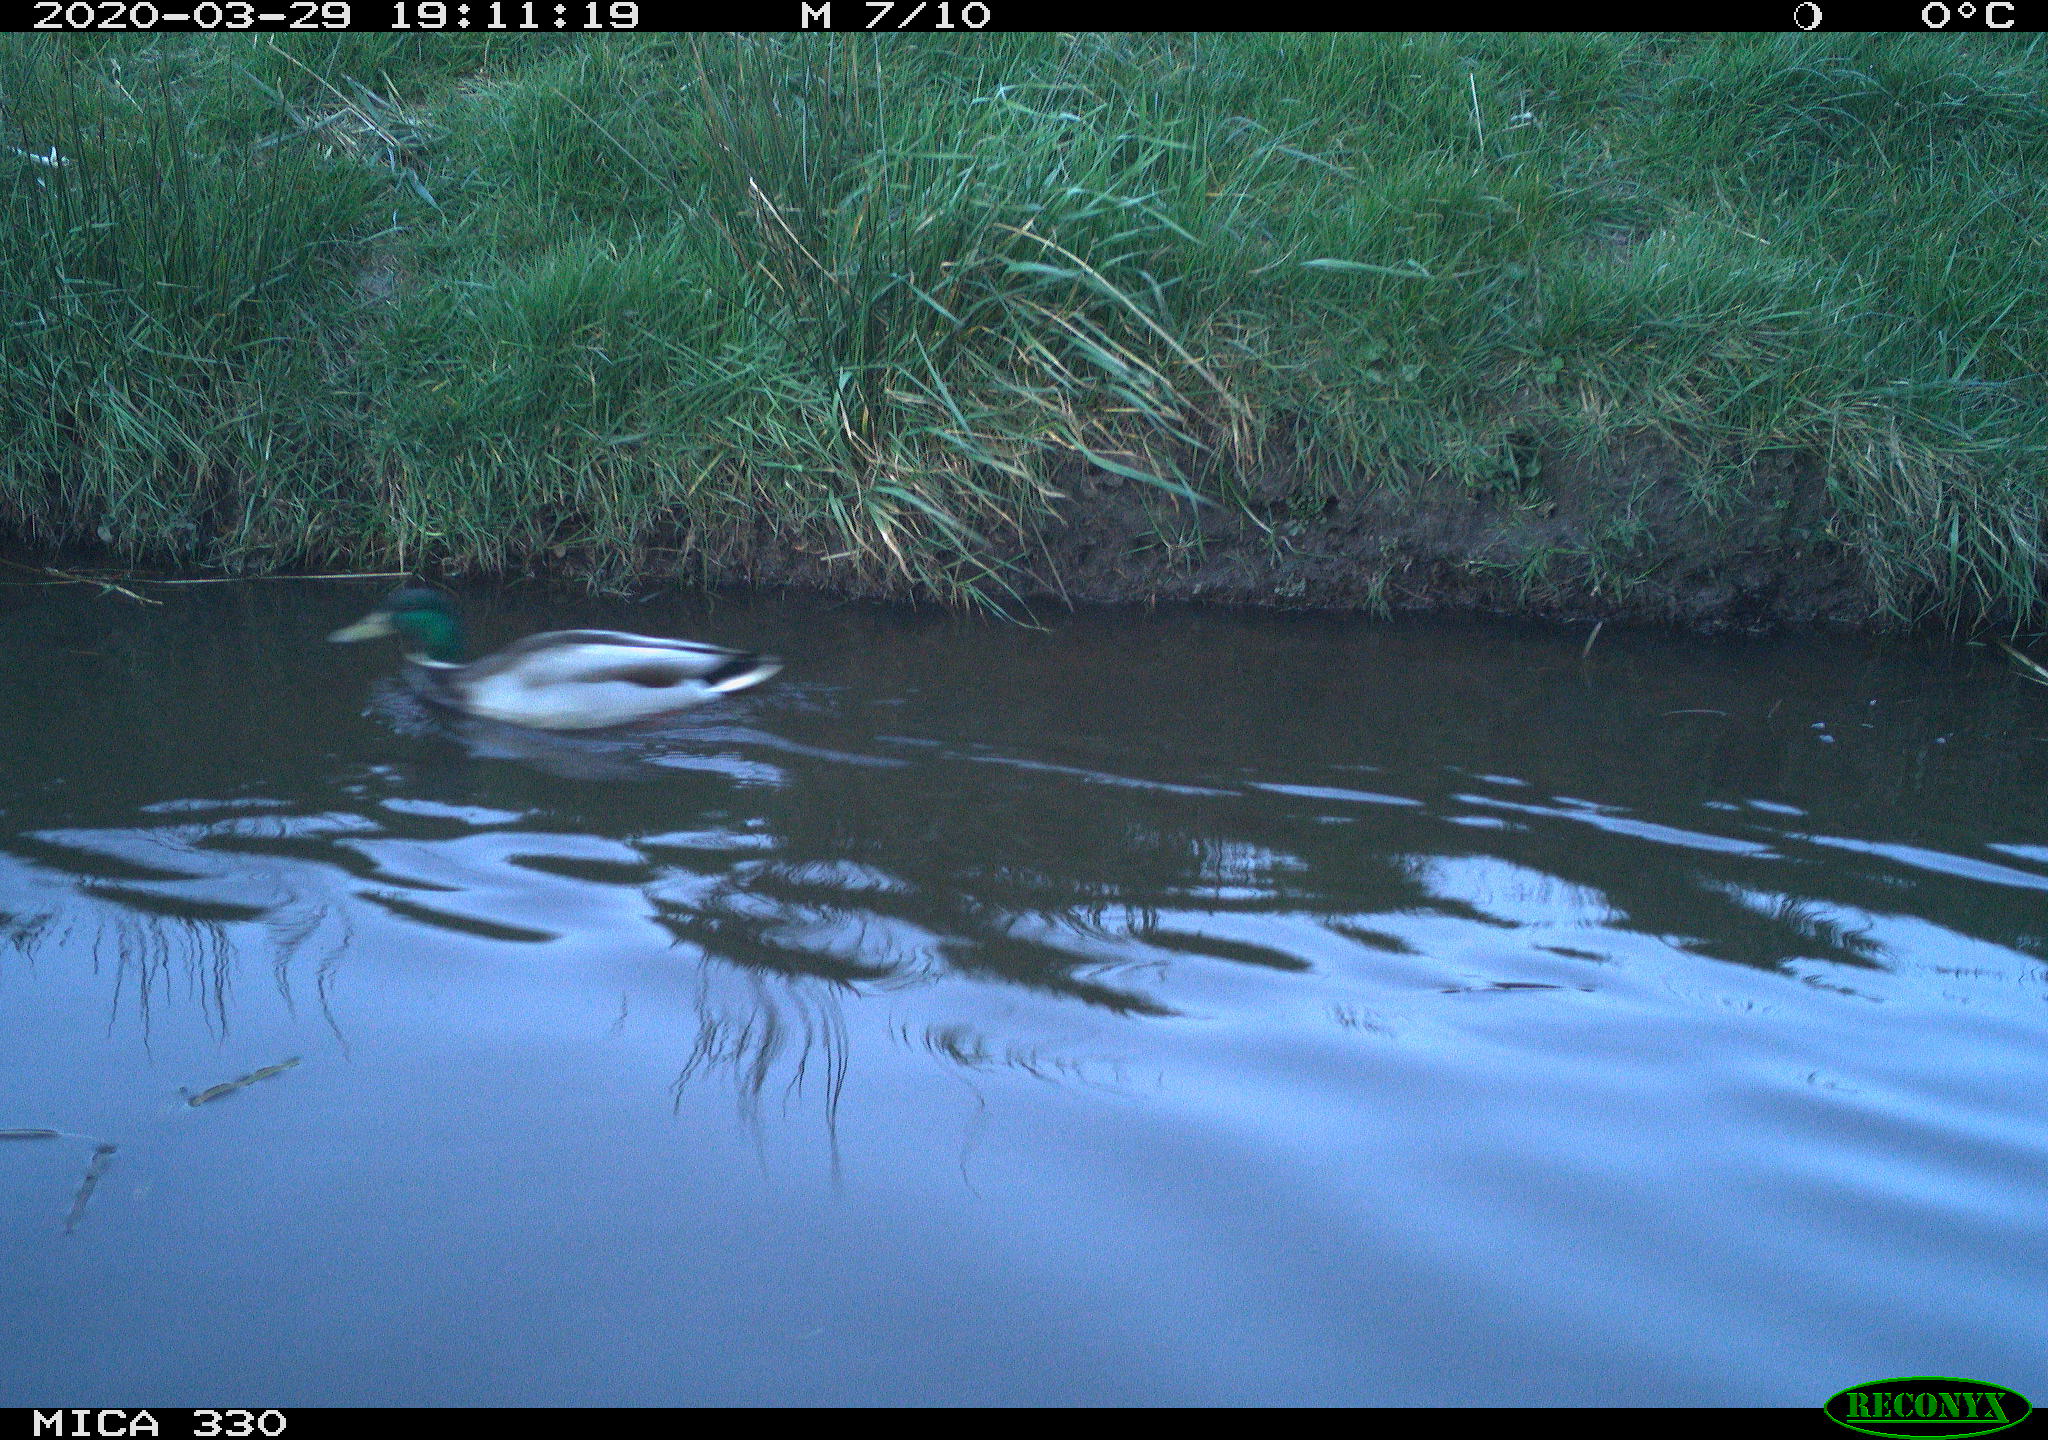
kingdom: Animalia
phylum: Chordata
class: Aves
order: Anseriformes
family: Anatidae
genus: Anas
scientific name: Anas platyrhynchos
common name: Mallard
